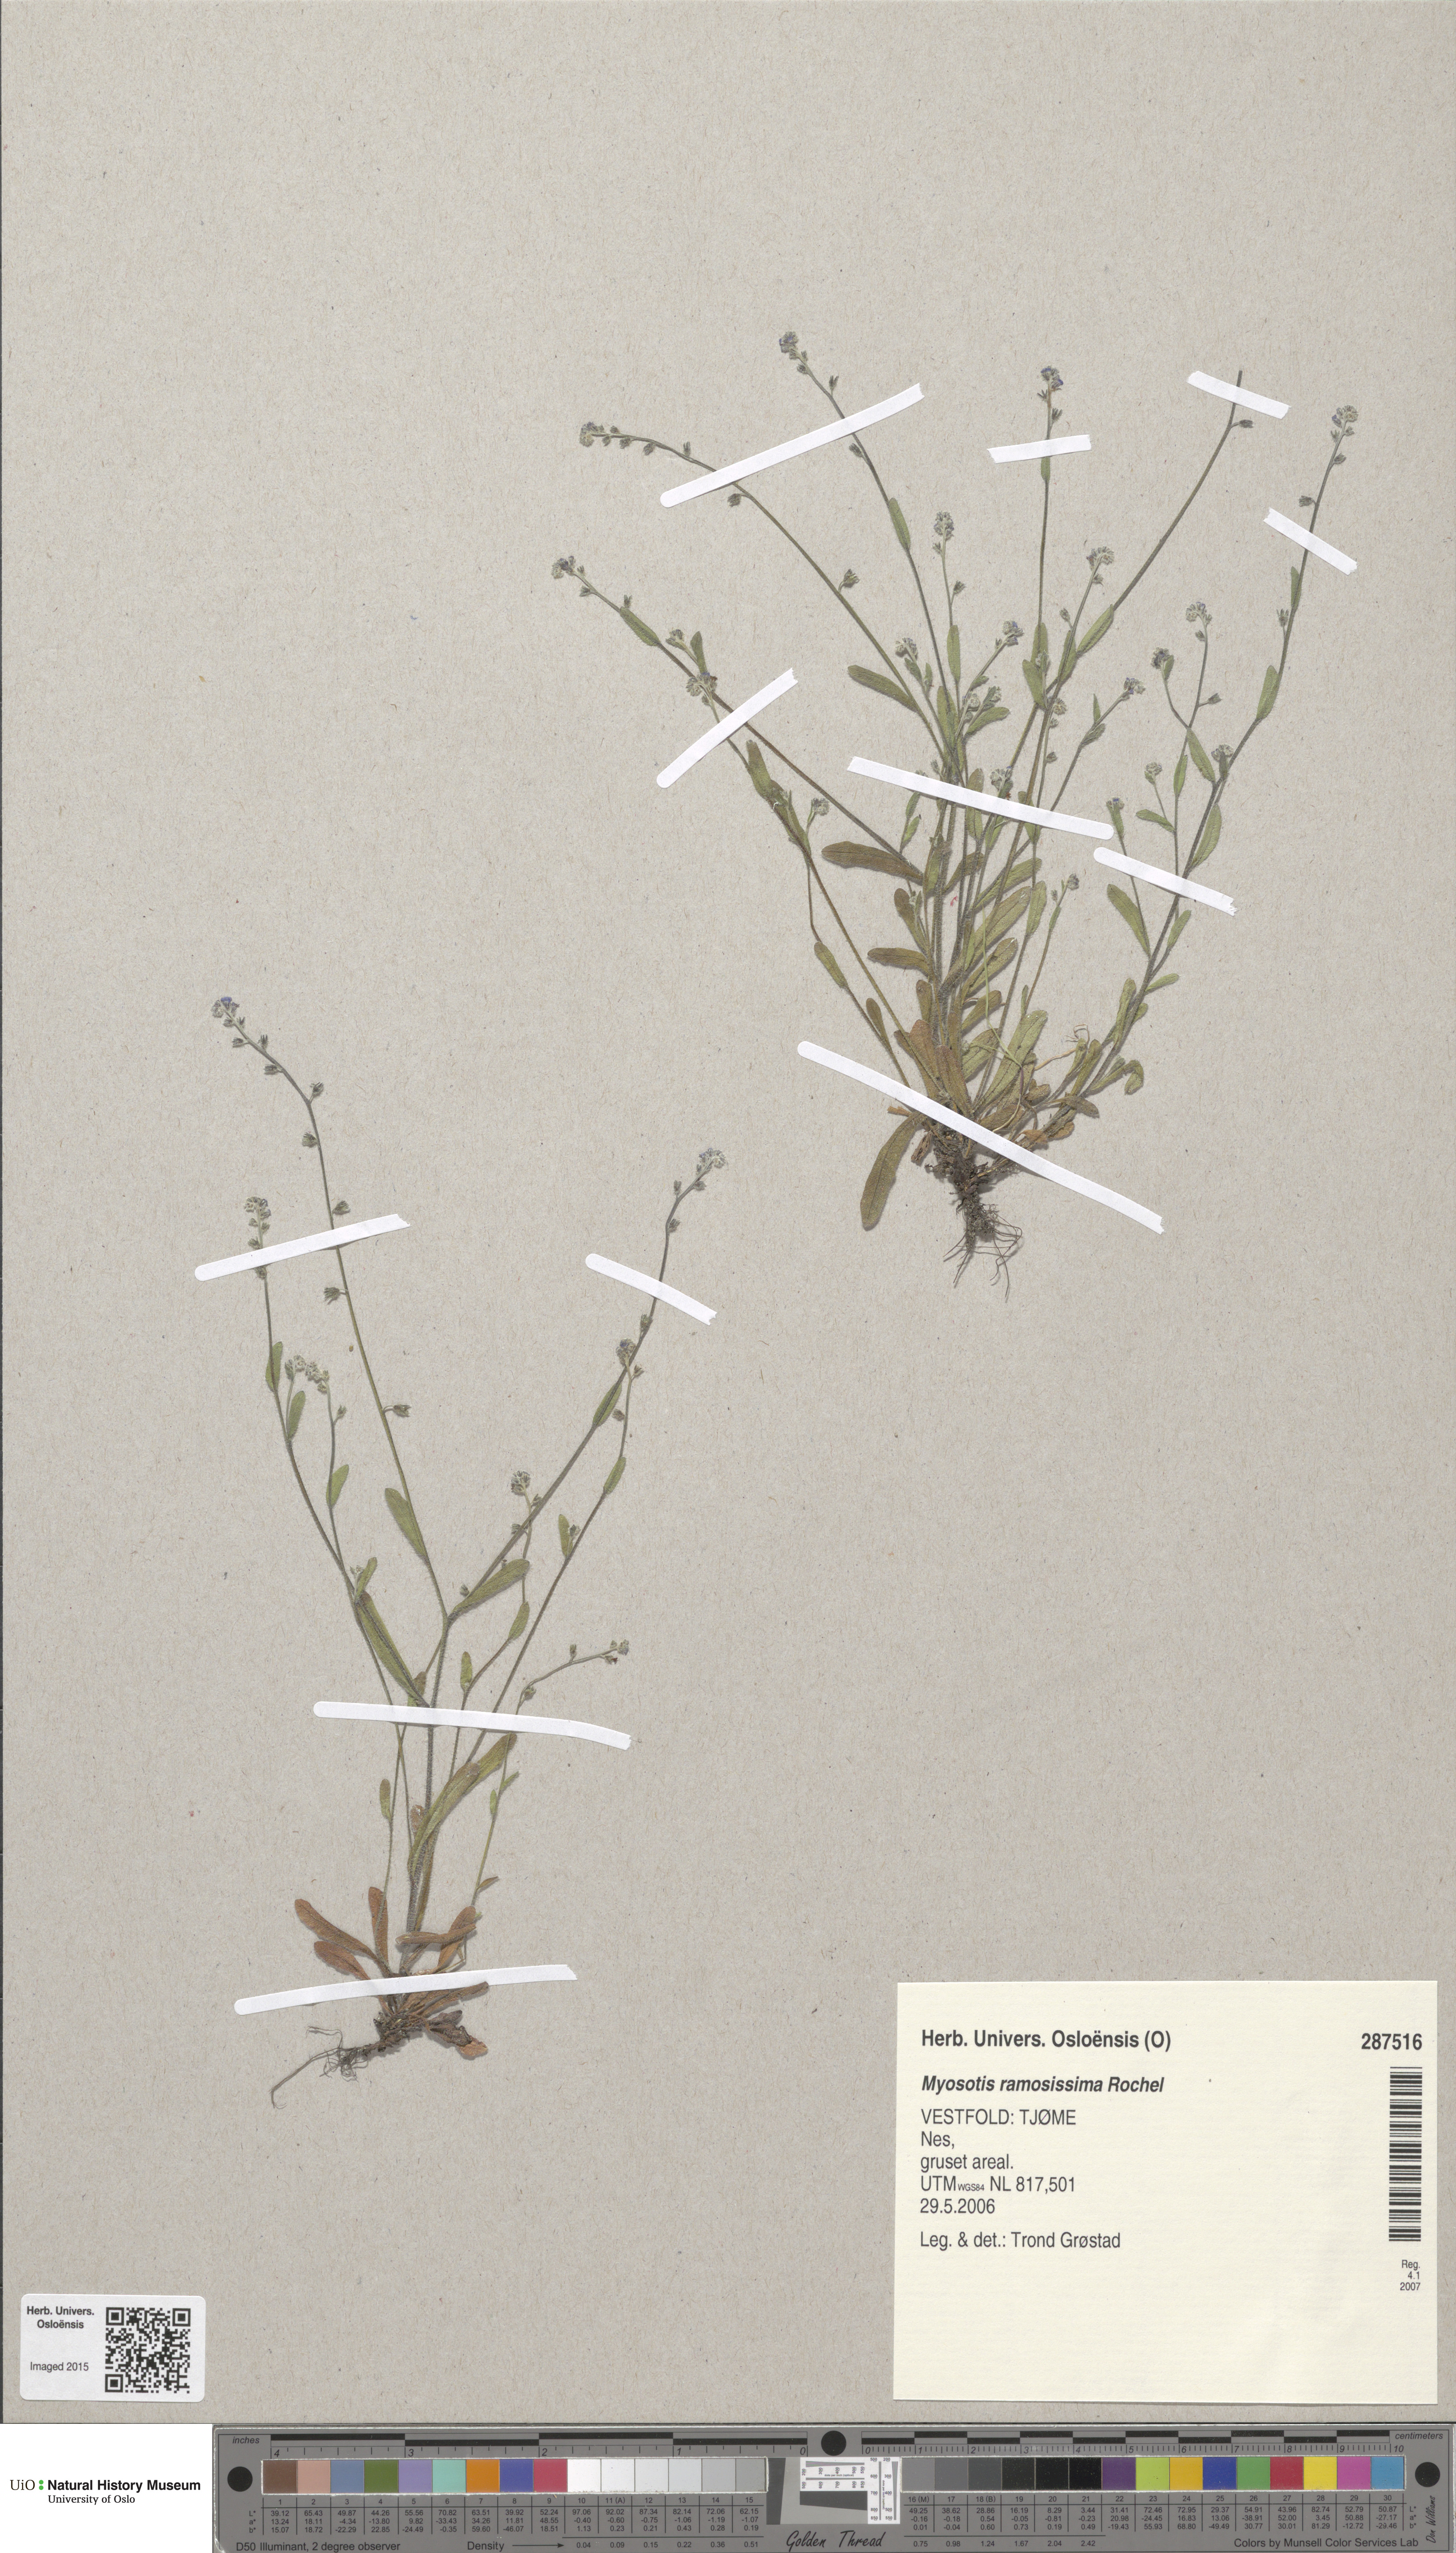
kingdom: Plantae
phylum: Tracheophyta
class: Magnoliopsida
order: Boraginales
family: Boraginaceae
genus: Myosotis
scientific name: Myosotis ramosissima
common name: Early forget-me-not
